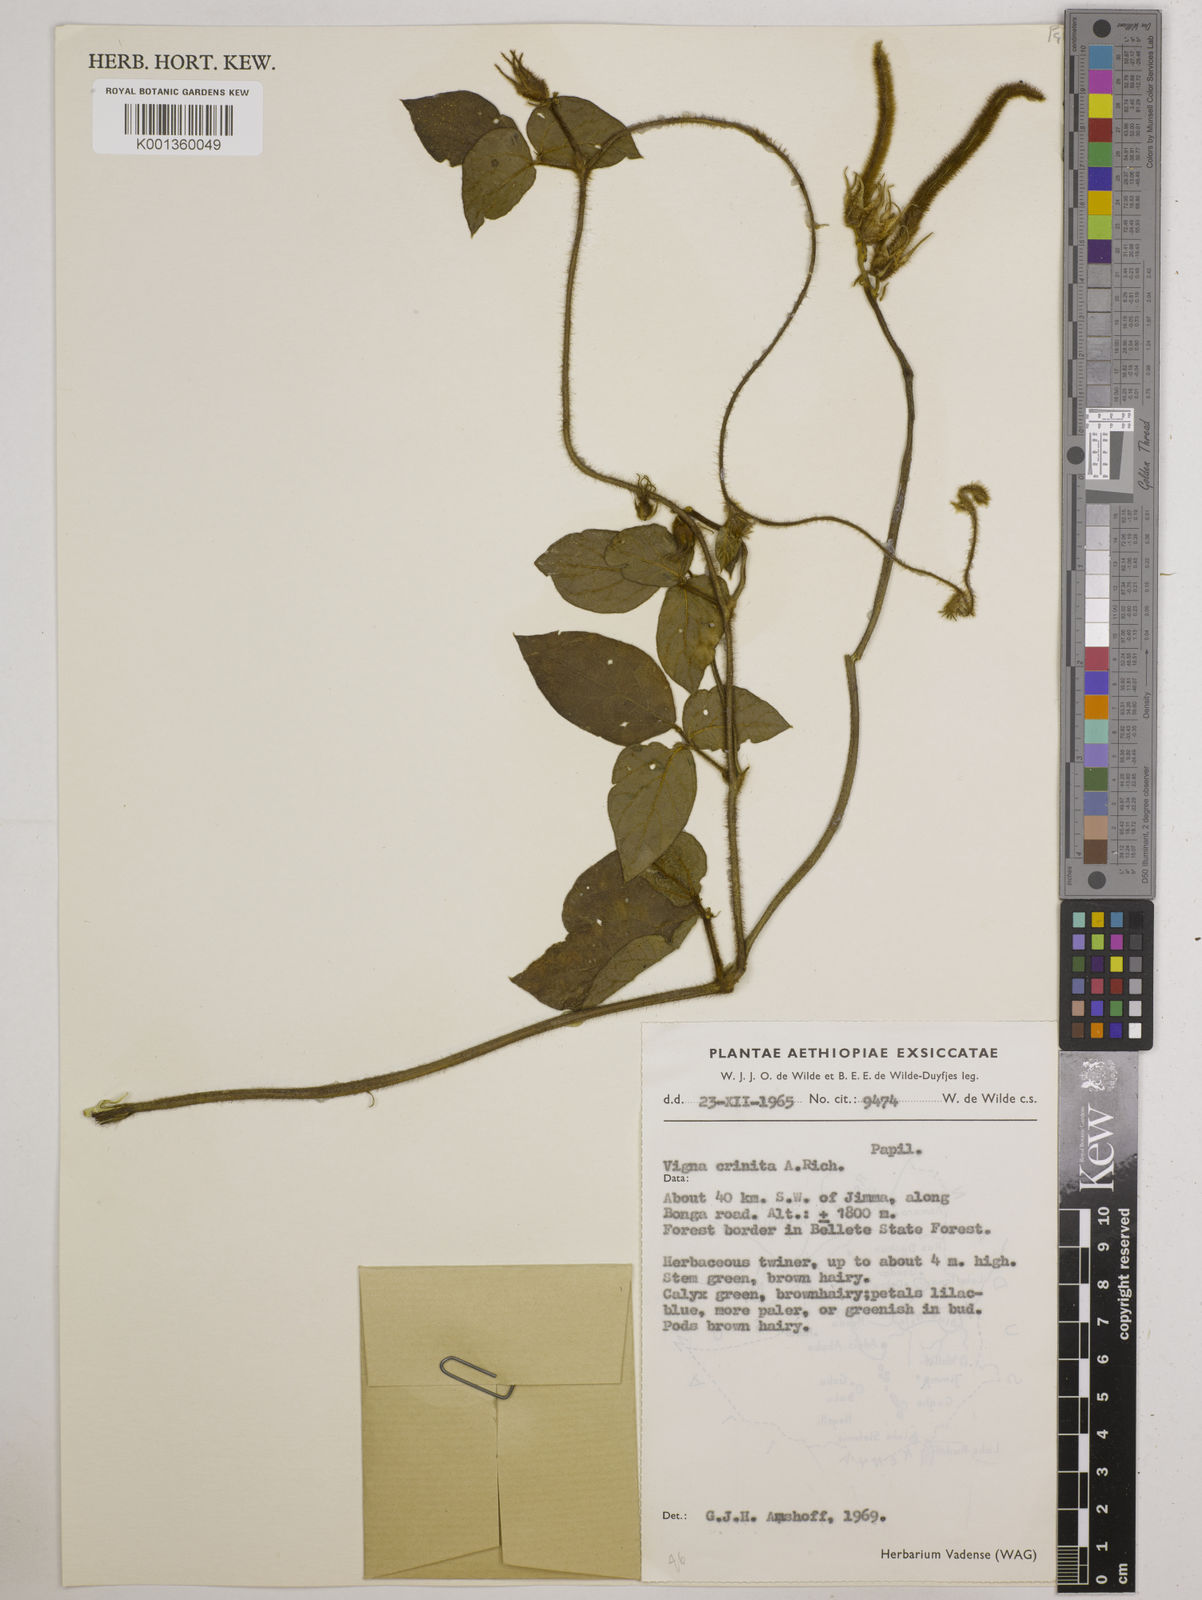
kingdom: Plantae
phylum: Tracheophyta
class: Magnoliopsida
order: Fabales
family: Fabaceae
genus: Vigna
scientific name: Vigna vexillata
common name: Zombi pea
